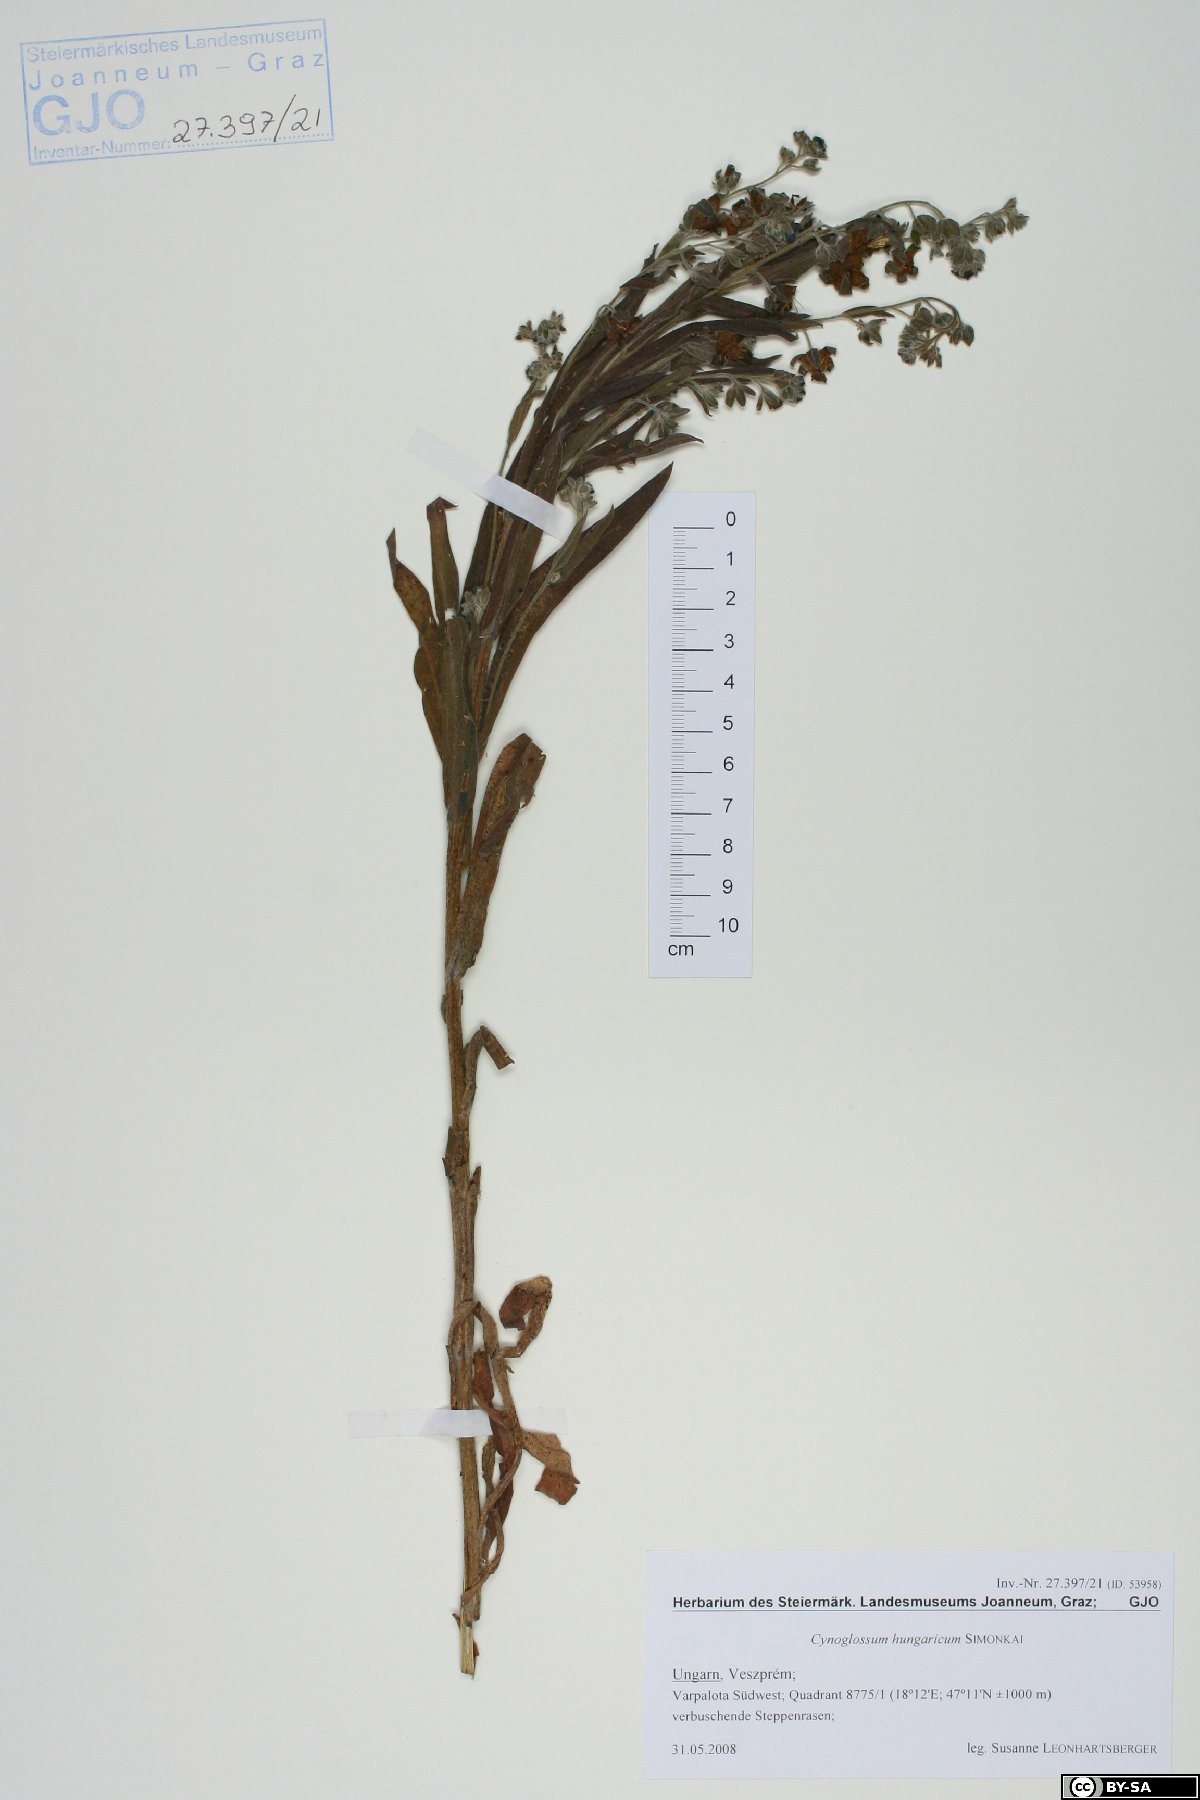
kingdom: Plantae
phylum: Tracheophyta
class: Magnoliopsida
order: Boraginales
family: Boraginaceae
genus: Cynoglossum
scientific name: Cynoglossum montanum
